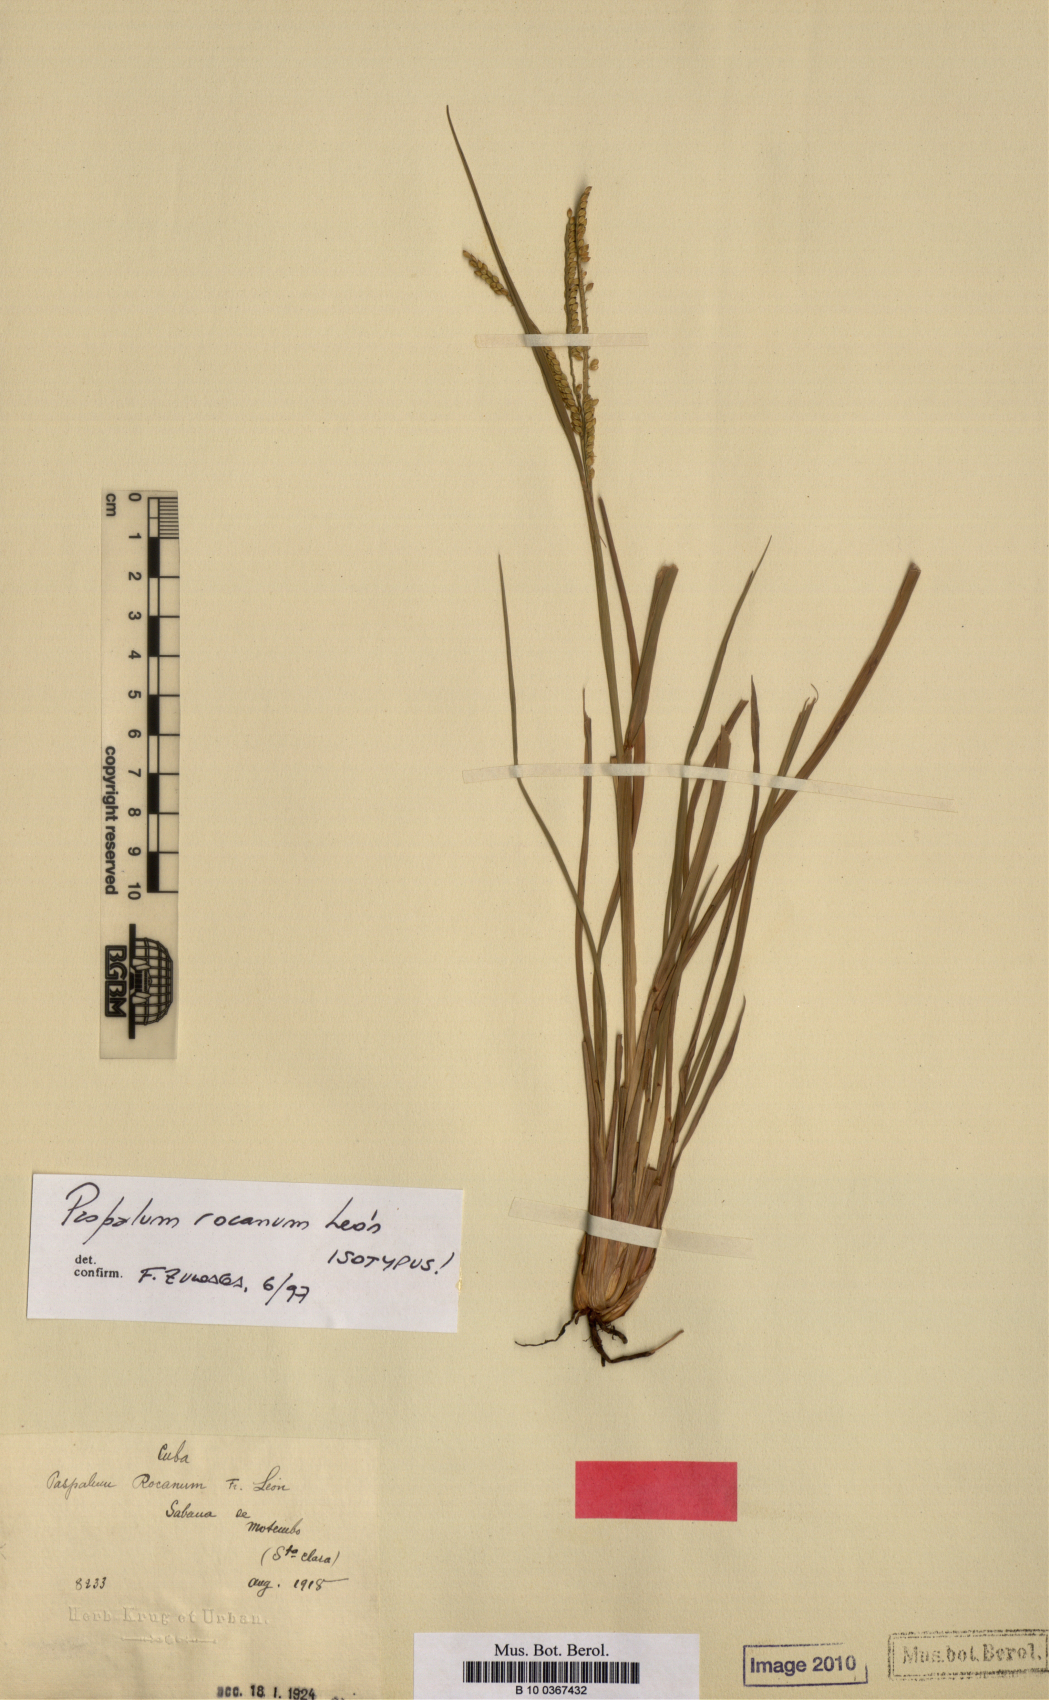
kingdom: Plantae
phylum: Tracheophyta
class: Liliopsida
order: Poales
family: Poaceae
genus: Paspalum
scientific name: Paspalum rocanum
